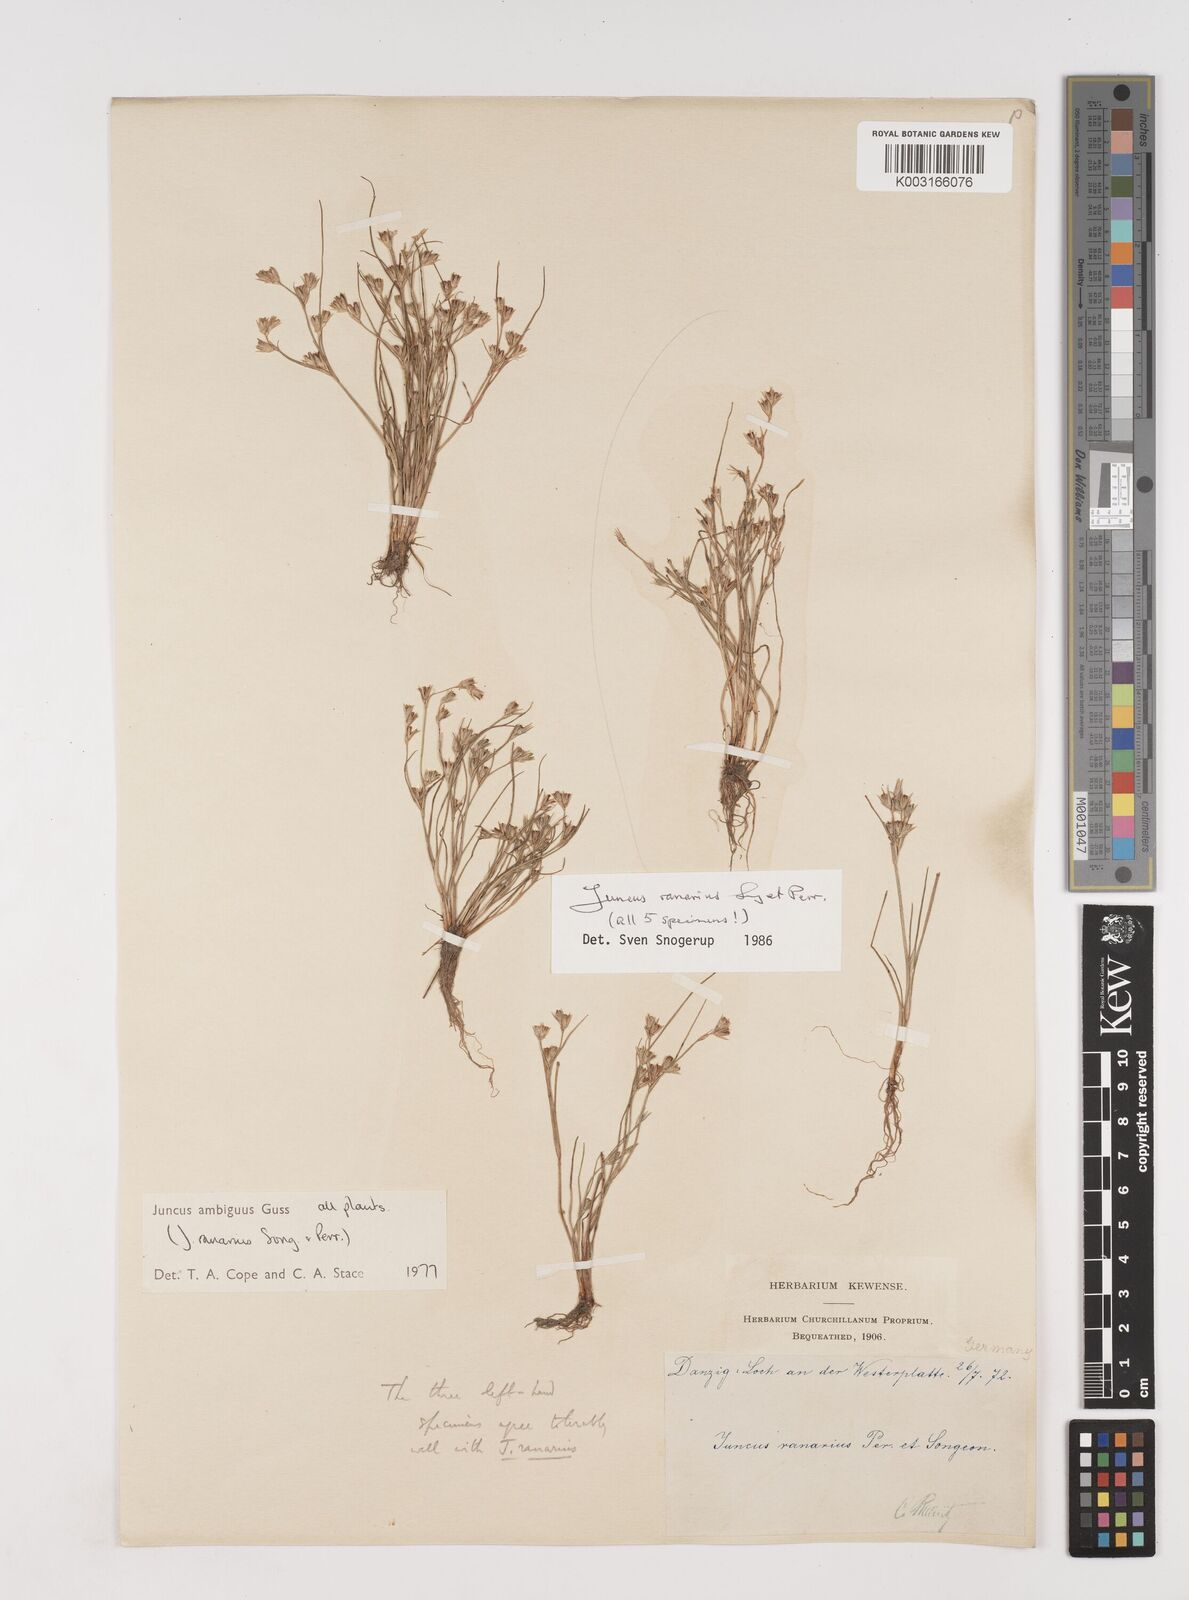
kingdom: Plantae
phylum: Tracheophyta
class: Liliopsida
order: Poales
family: Juncaceae
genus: Juncus
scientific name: Juncus hybridus
